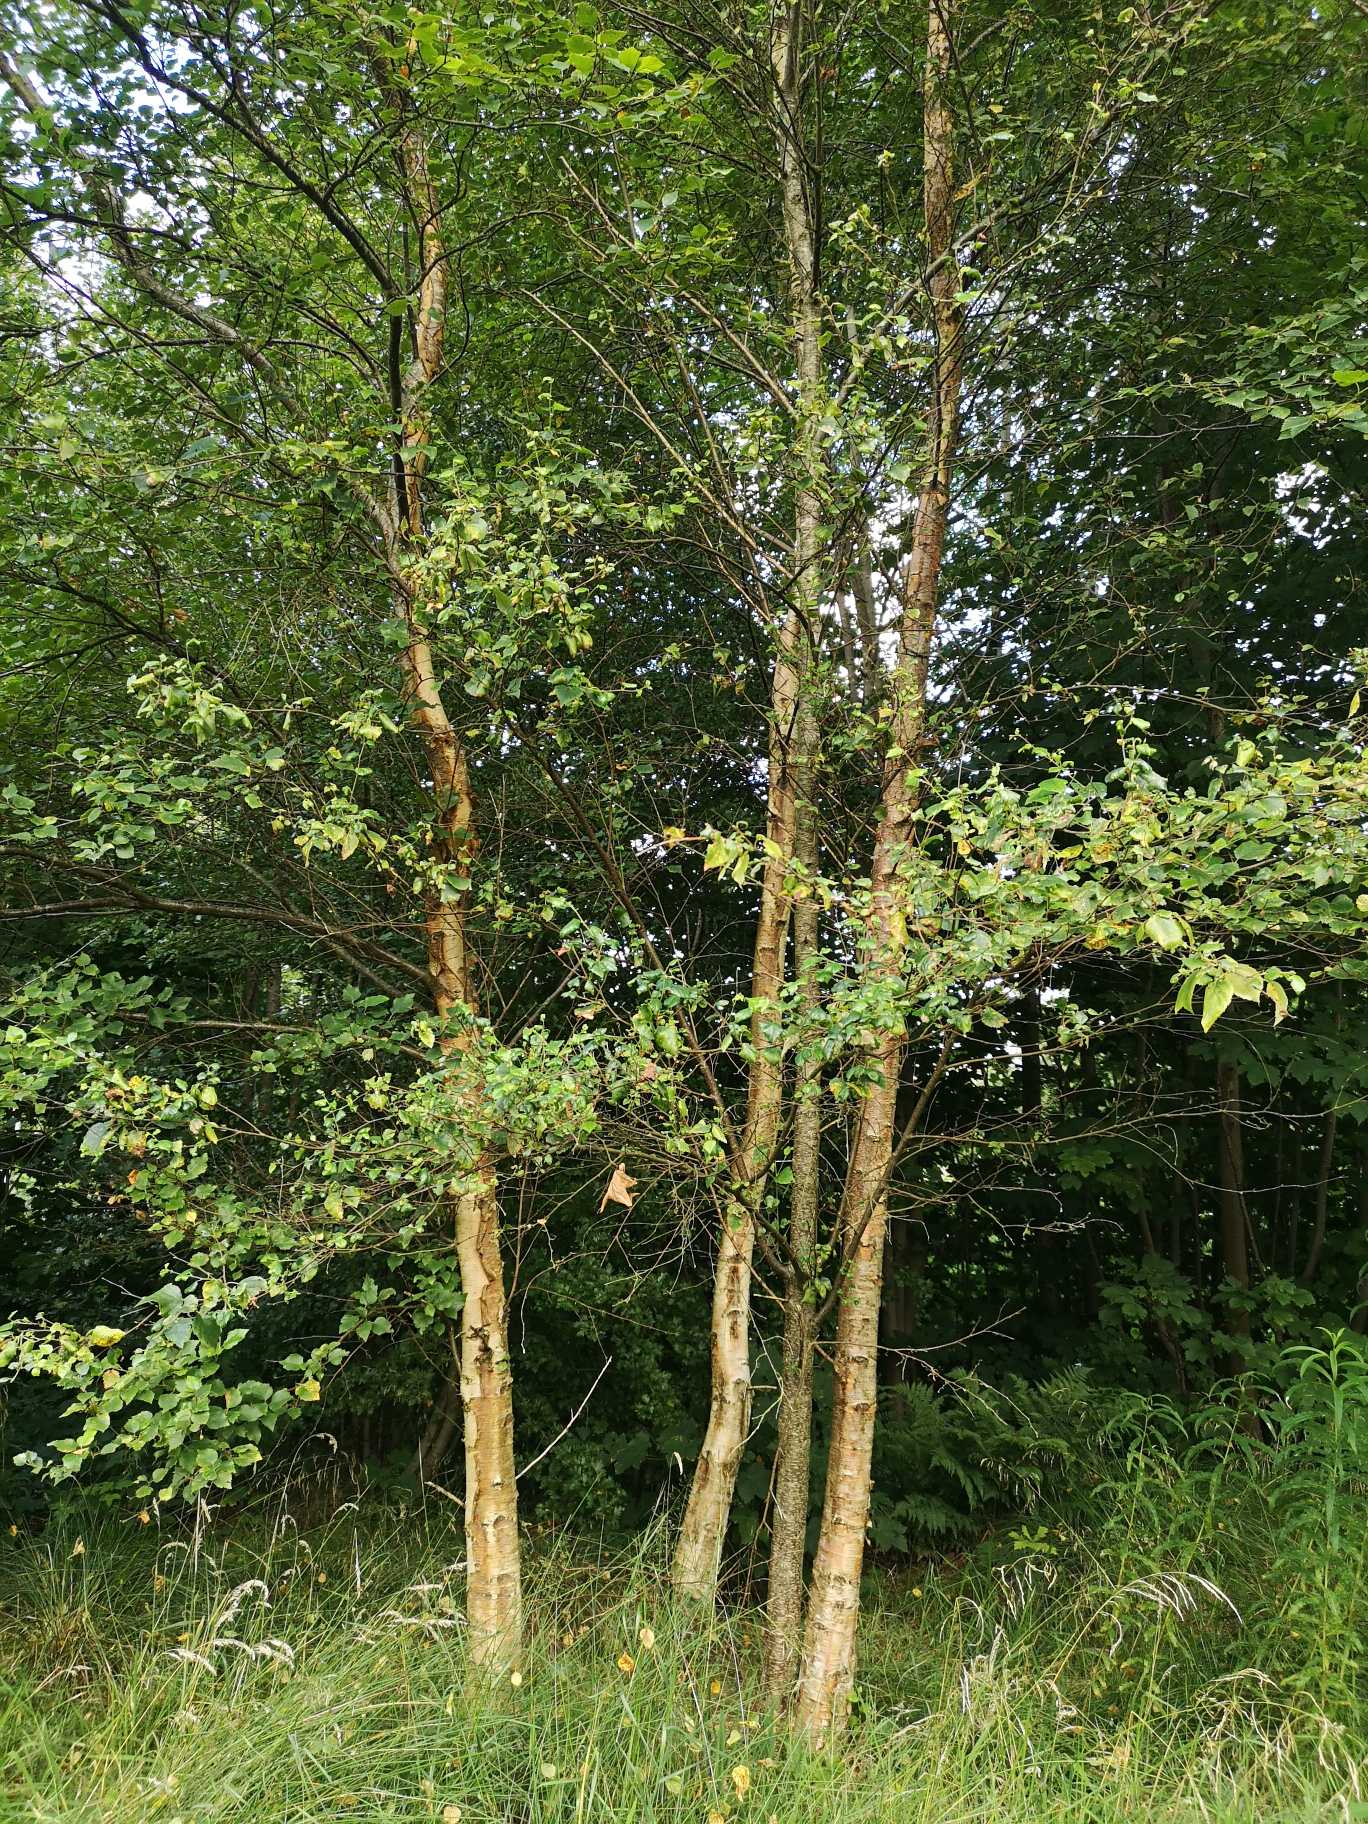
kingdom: Plantae
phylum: Tracheophyta
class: Magnoliopsida
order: Fagales
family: Betulaceae
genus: Betula
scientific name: Betula
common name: Birkeslægten
